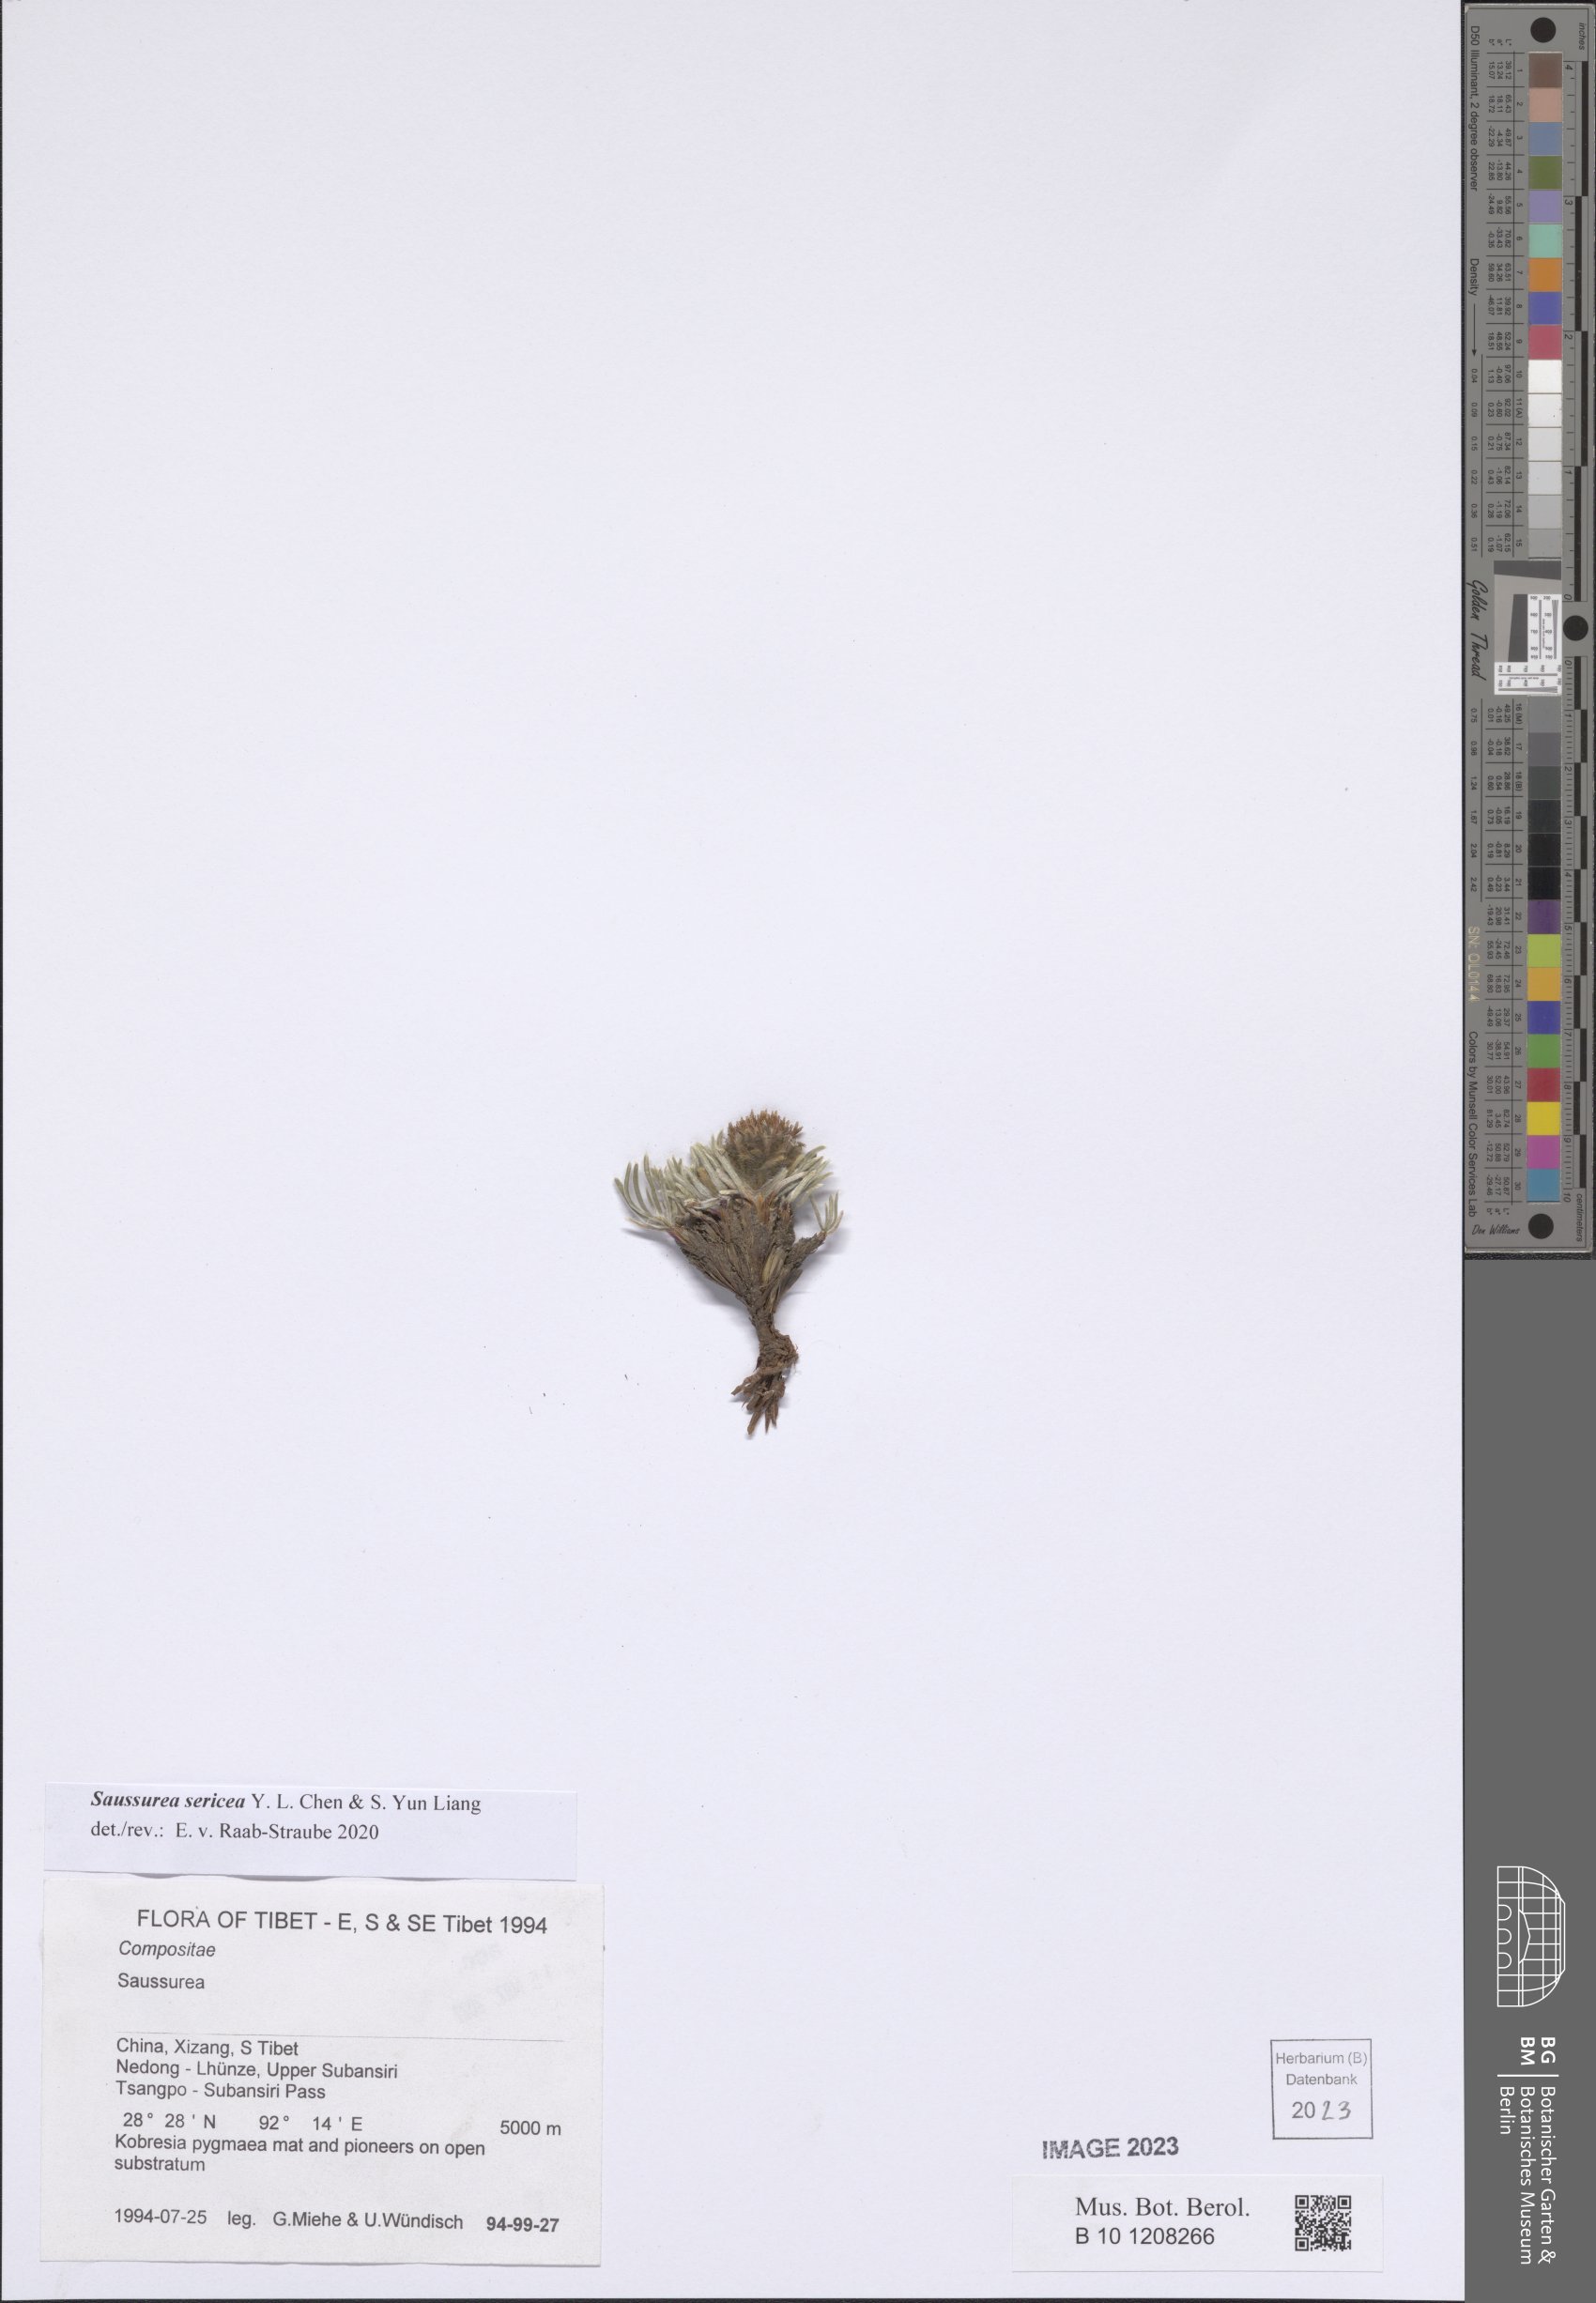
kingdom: Plantae
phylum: Tracheophyta
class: Magnoliopsida
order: Asterales
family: Asteraceae
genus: Saussurea
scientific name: Saussurea sericea
